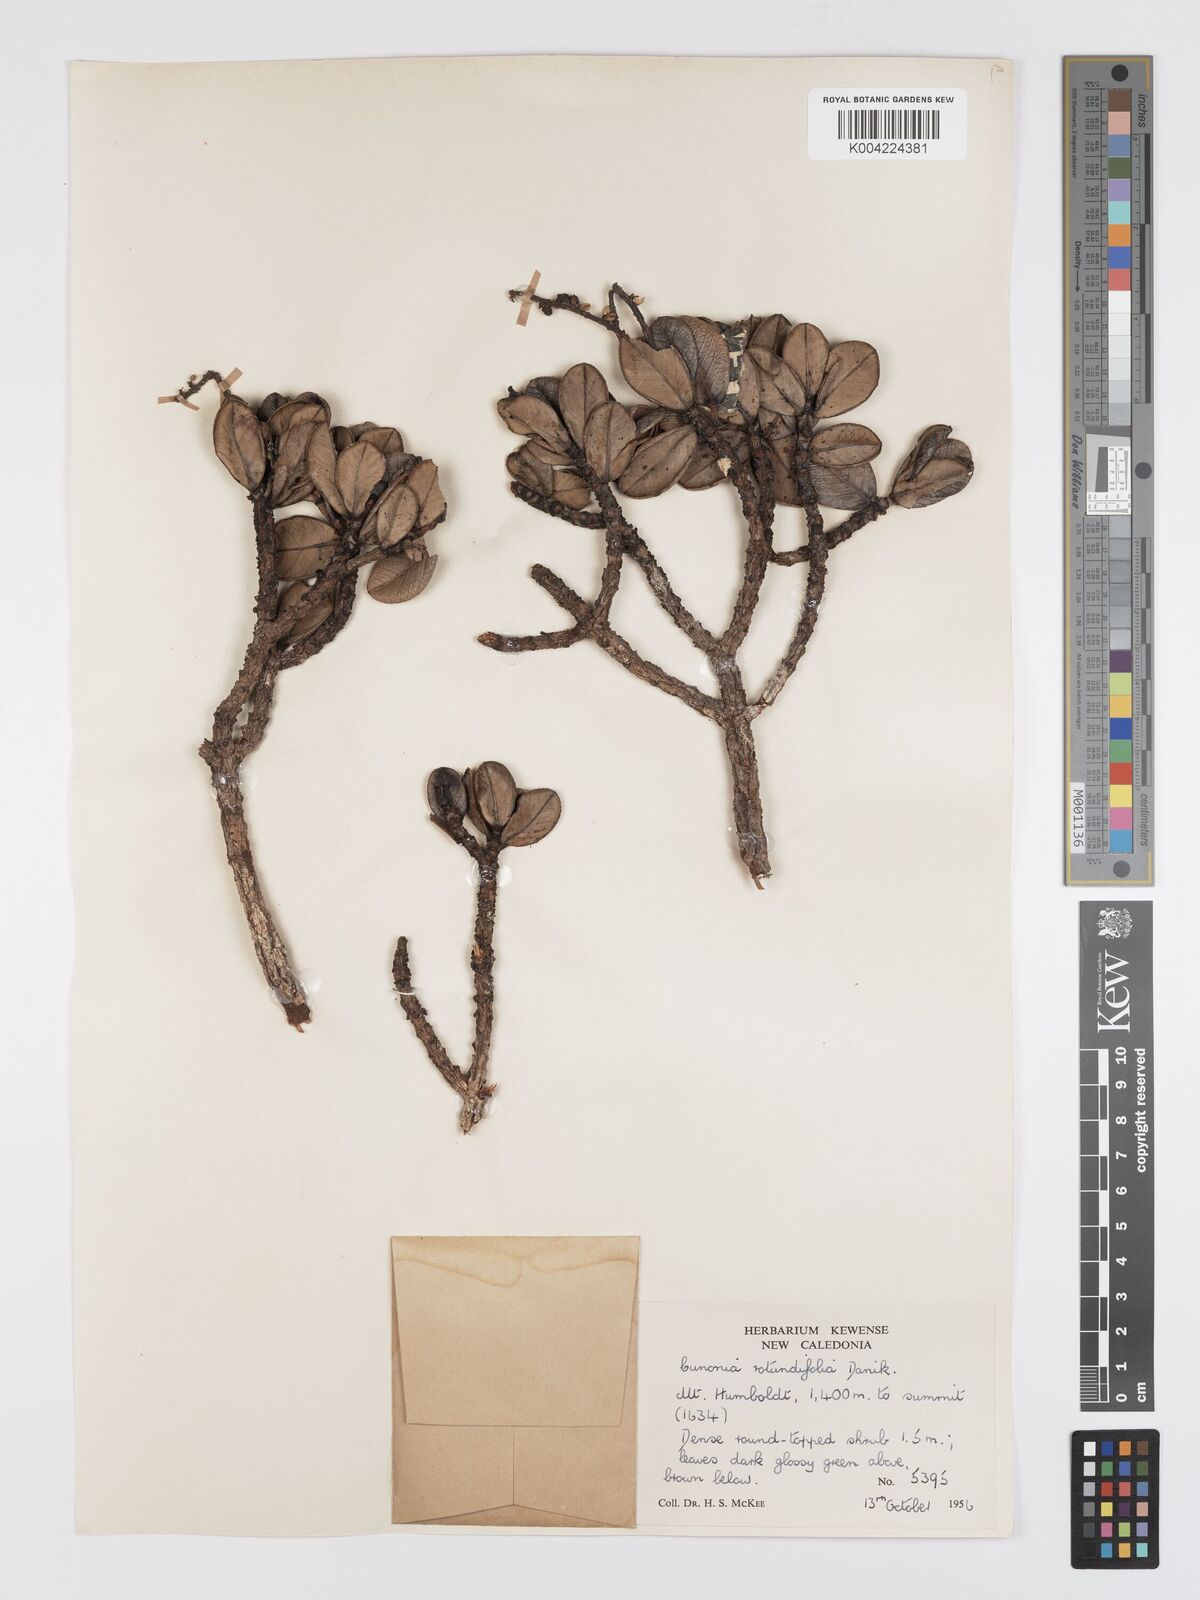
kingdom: Plantae
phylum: Tracheophyta
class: Magnoliopsida
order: Oxalidales
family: Cunoniaceae
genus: Cunonia
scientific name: Cunonia rotundifolia
